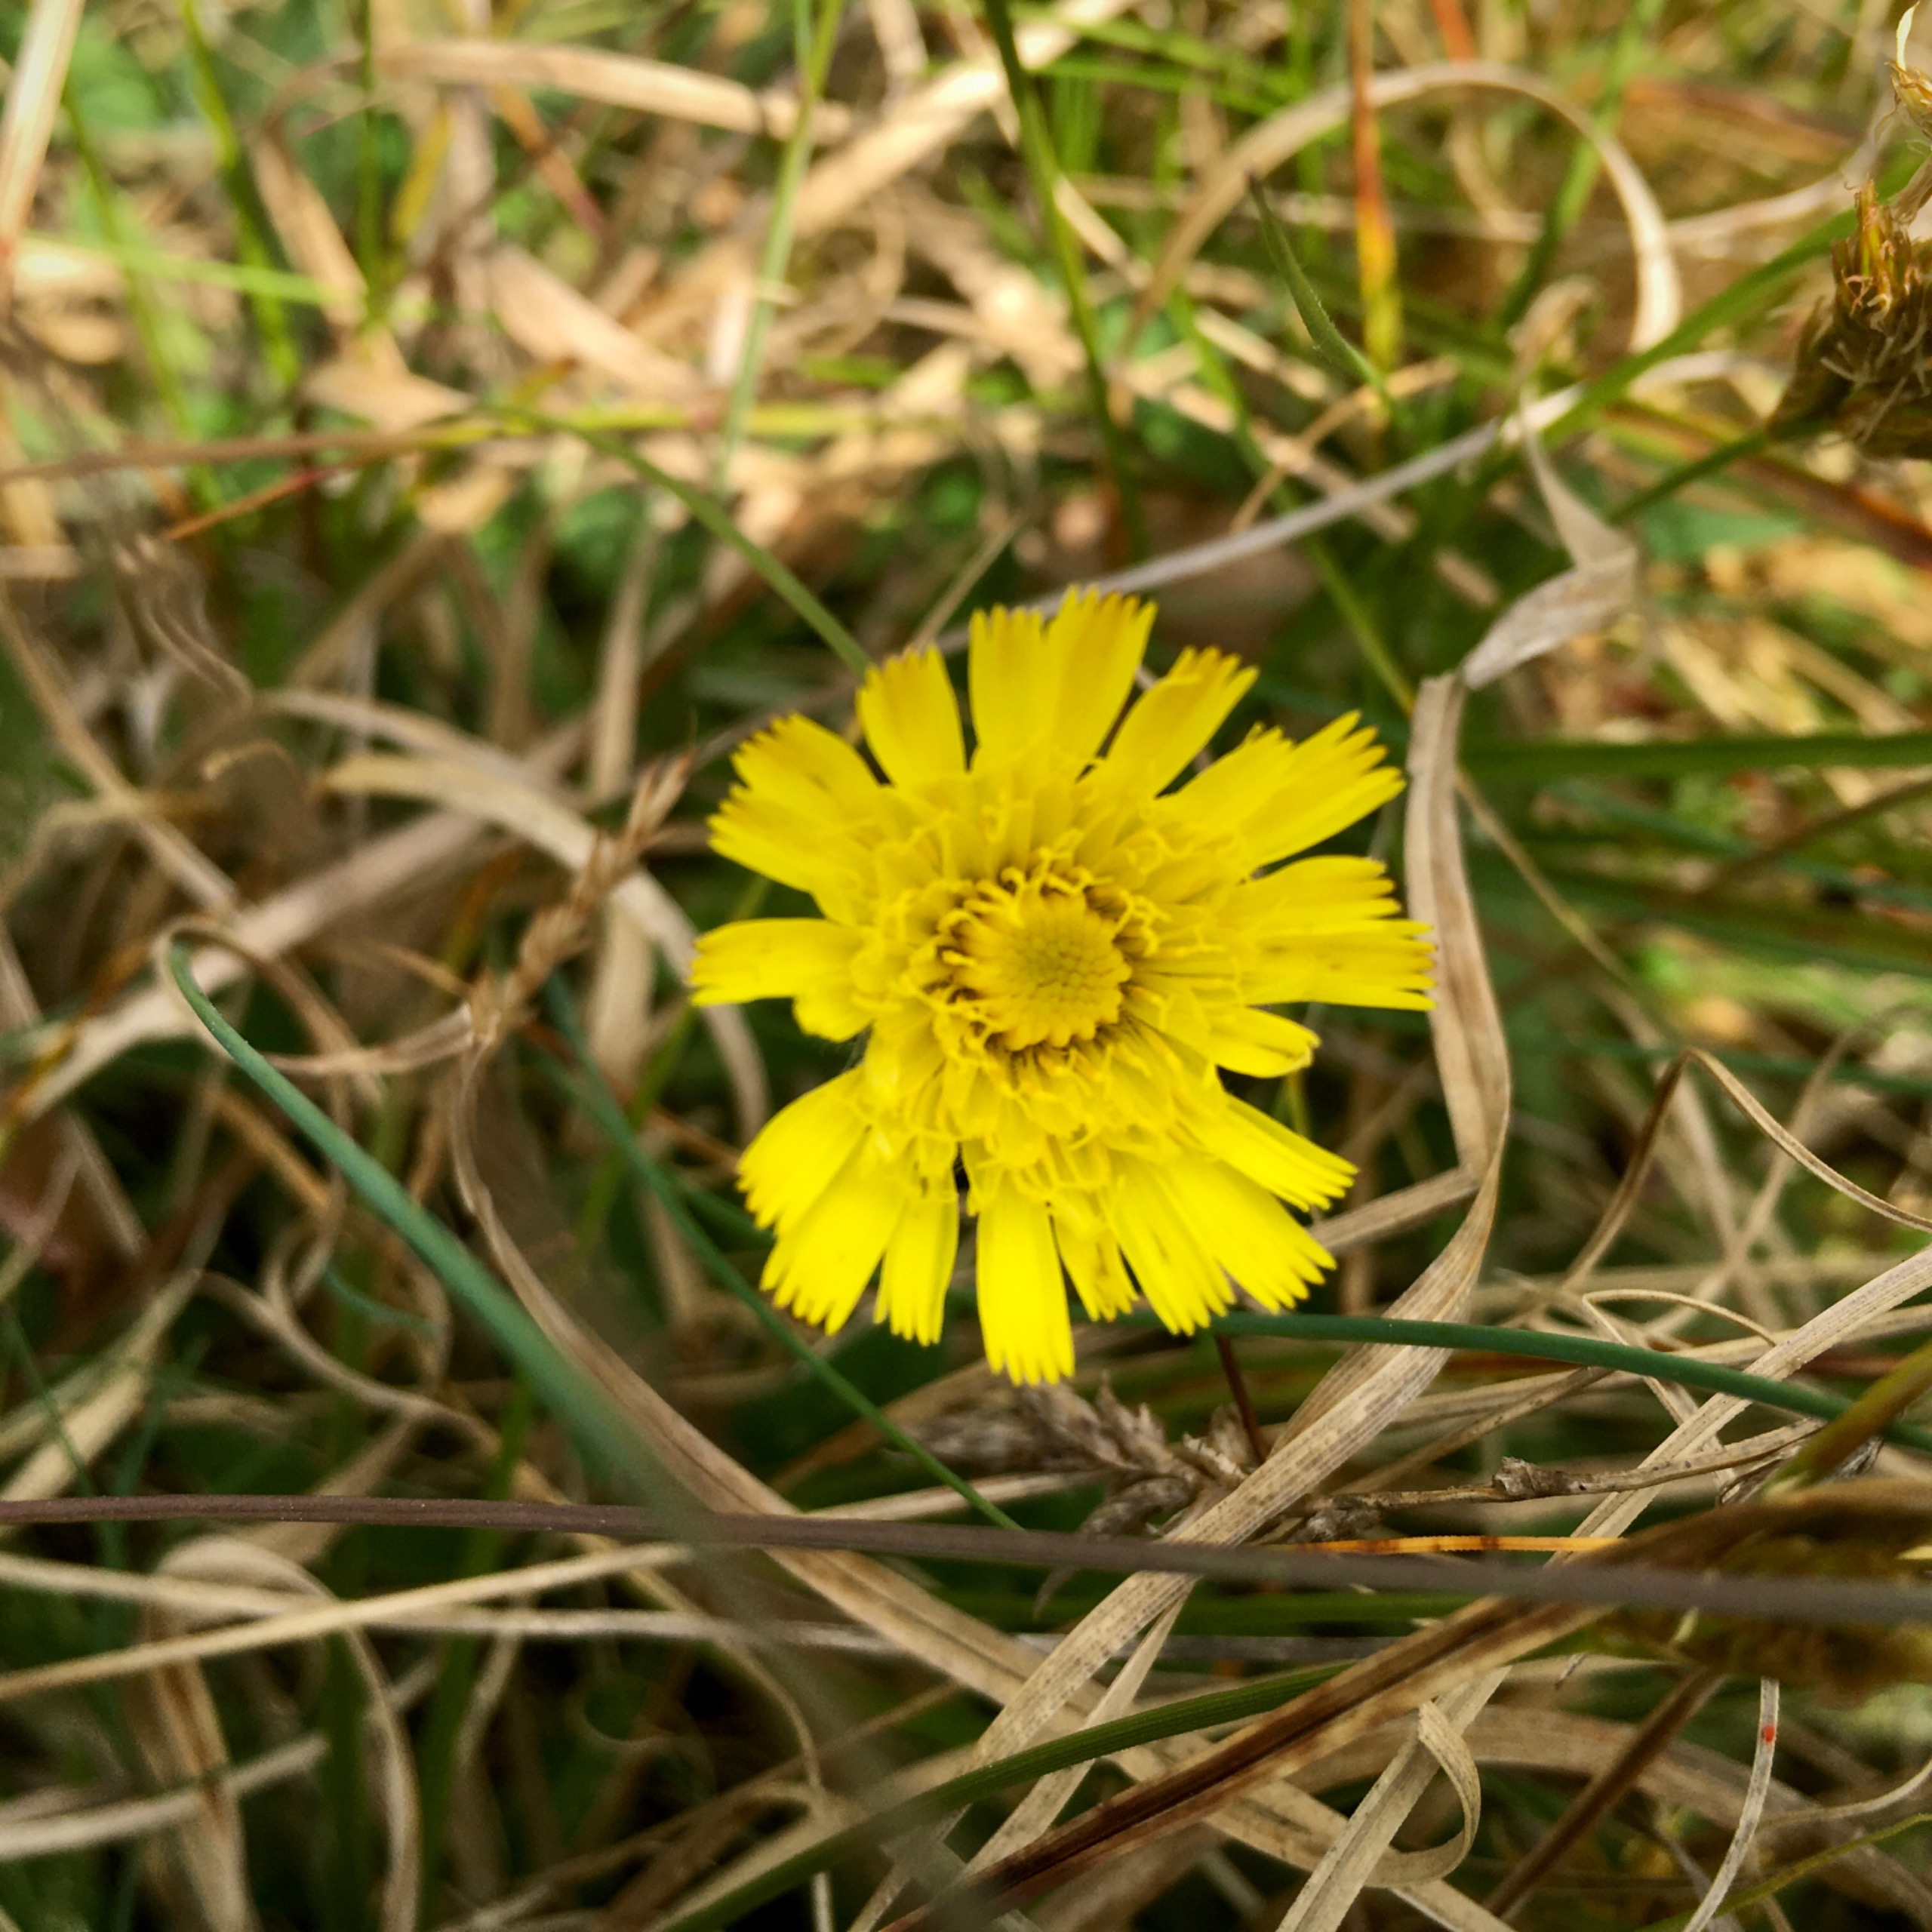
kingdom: Plantae
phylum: Tracheophyta
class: Magnoliopsida
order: Asterales
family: Asteraceae
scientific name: Asteraceae
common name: Kurvblomstfamilien
